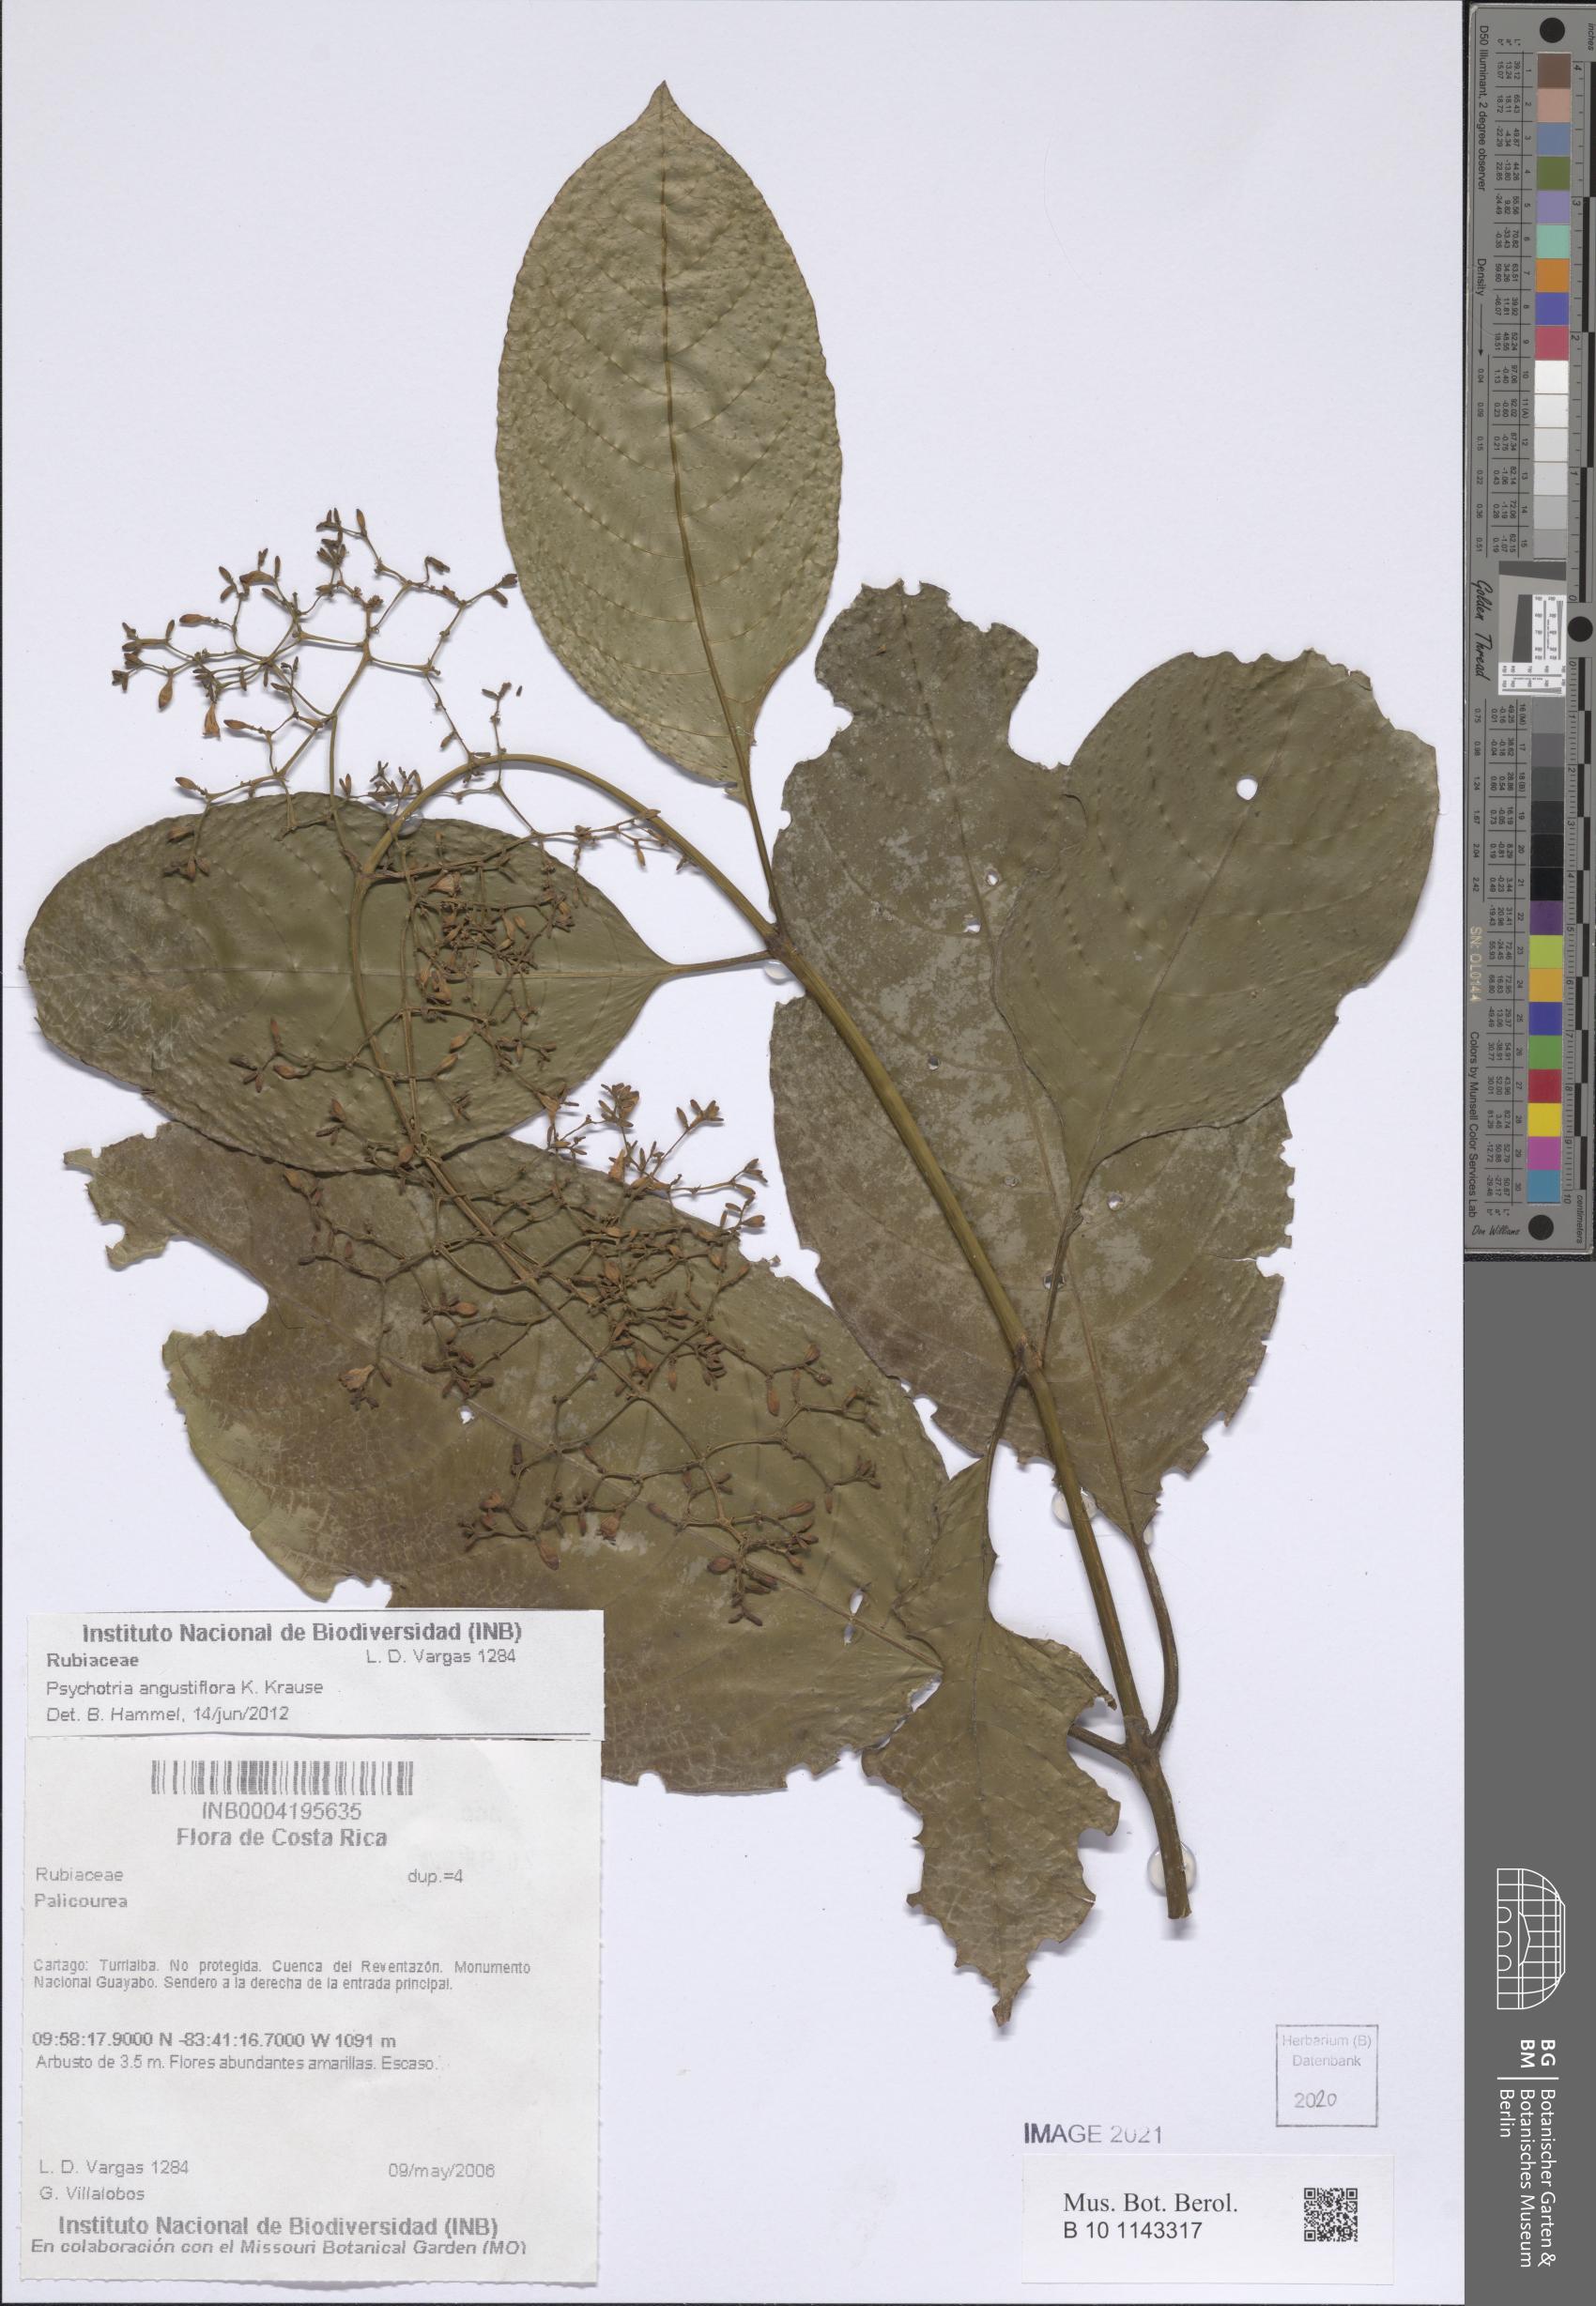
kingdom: Plantae
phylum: Tracheophyta
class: Magnoliopsida
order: Gentianales
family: Rubiaceae
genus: Palicourea
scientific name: Palicourea angustiflora
